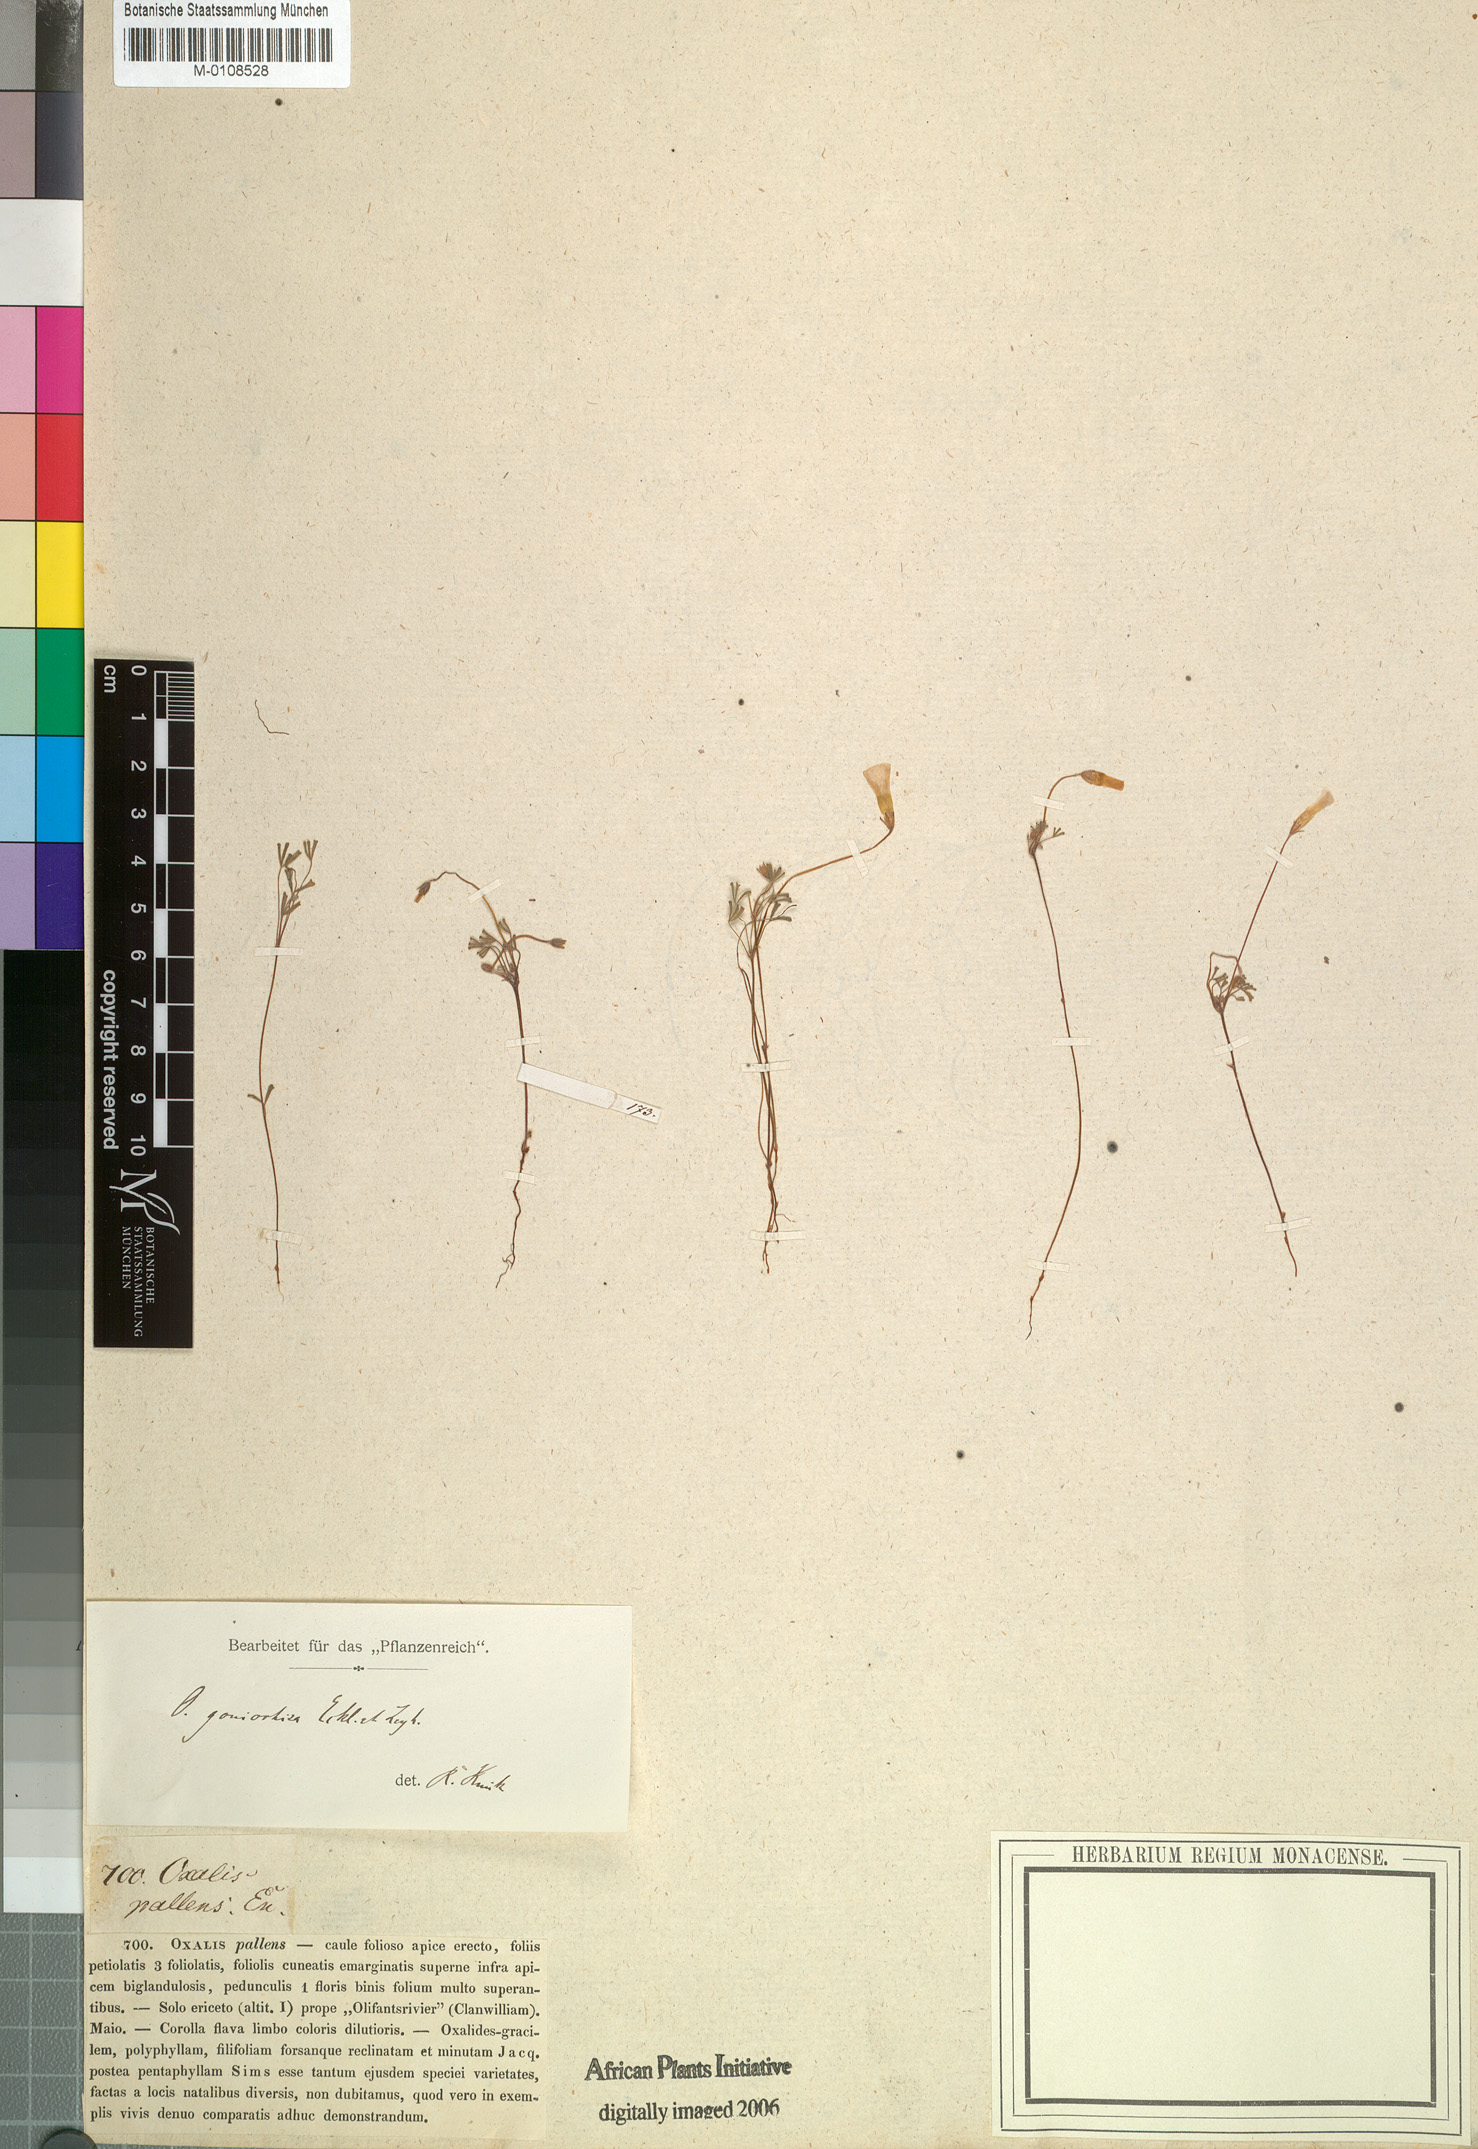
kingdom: Plantae
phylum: Tracheophyta
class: Magnoliopsida
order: Oxalidales
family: Oxalidaceae
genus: Oxalis
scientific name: Oxalis goniorhiza
